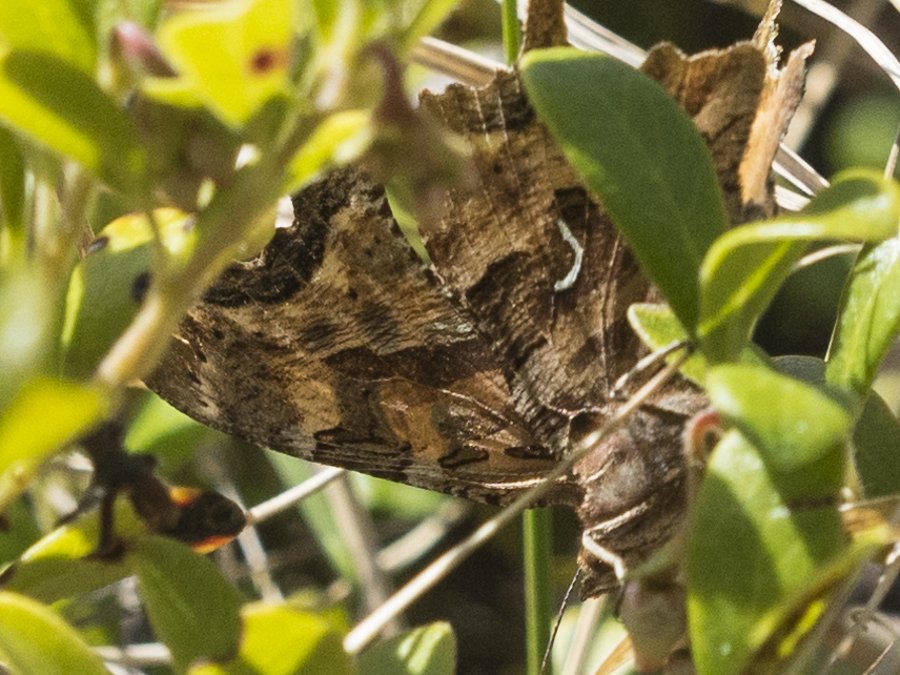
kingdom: Animalia
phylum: Arthropoda
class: Insecta
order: Lepidoptera
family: Nymphalidae
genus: Polygonia
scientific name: Polygonia satyrus
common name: Satyr Comma
